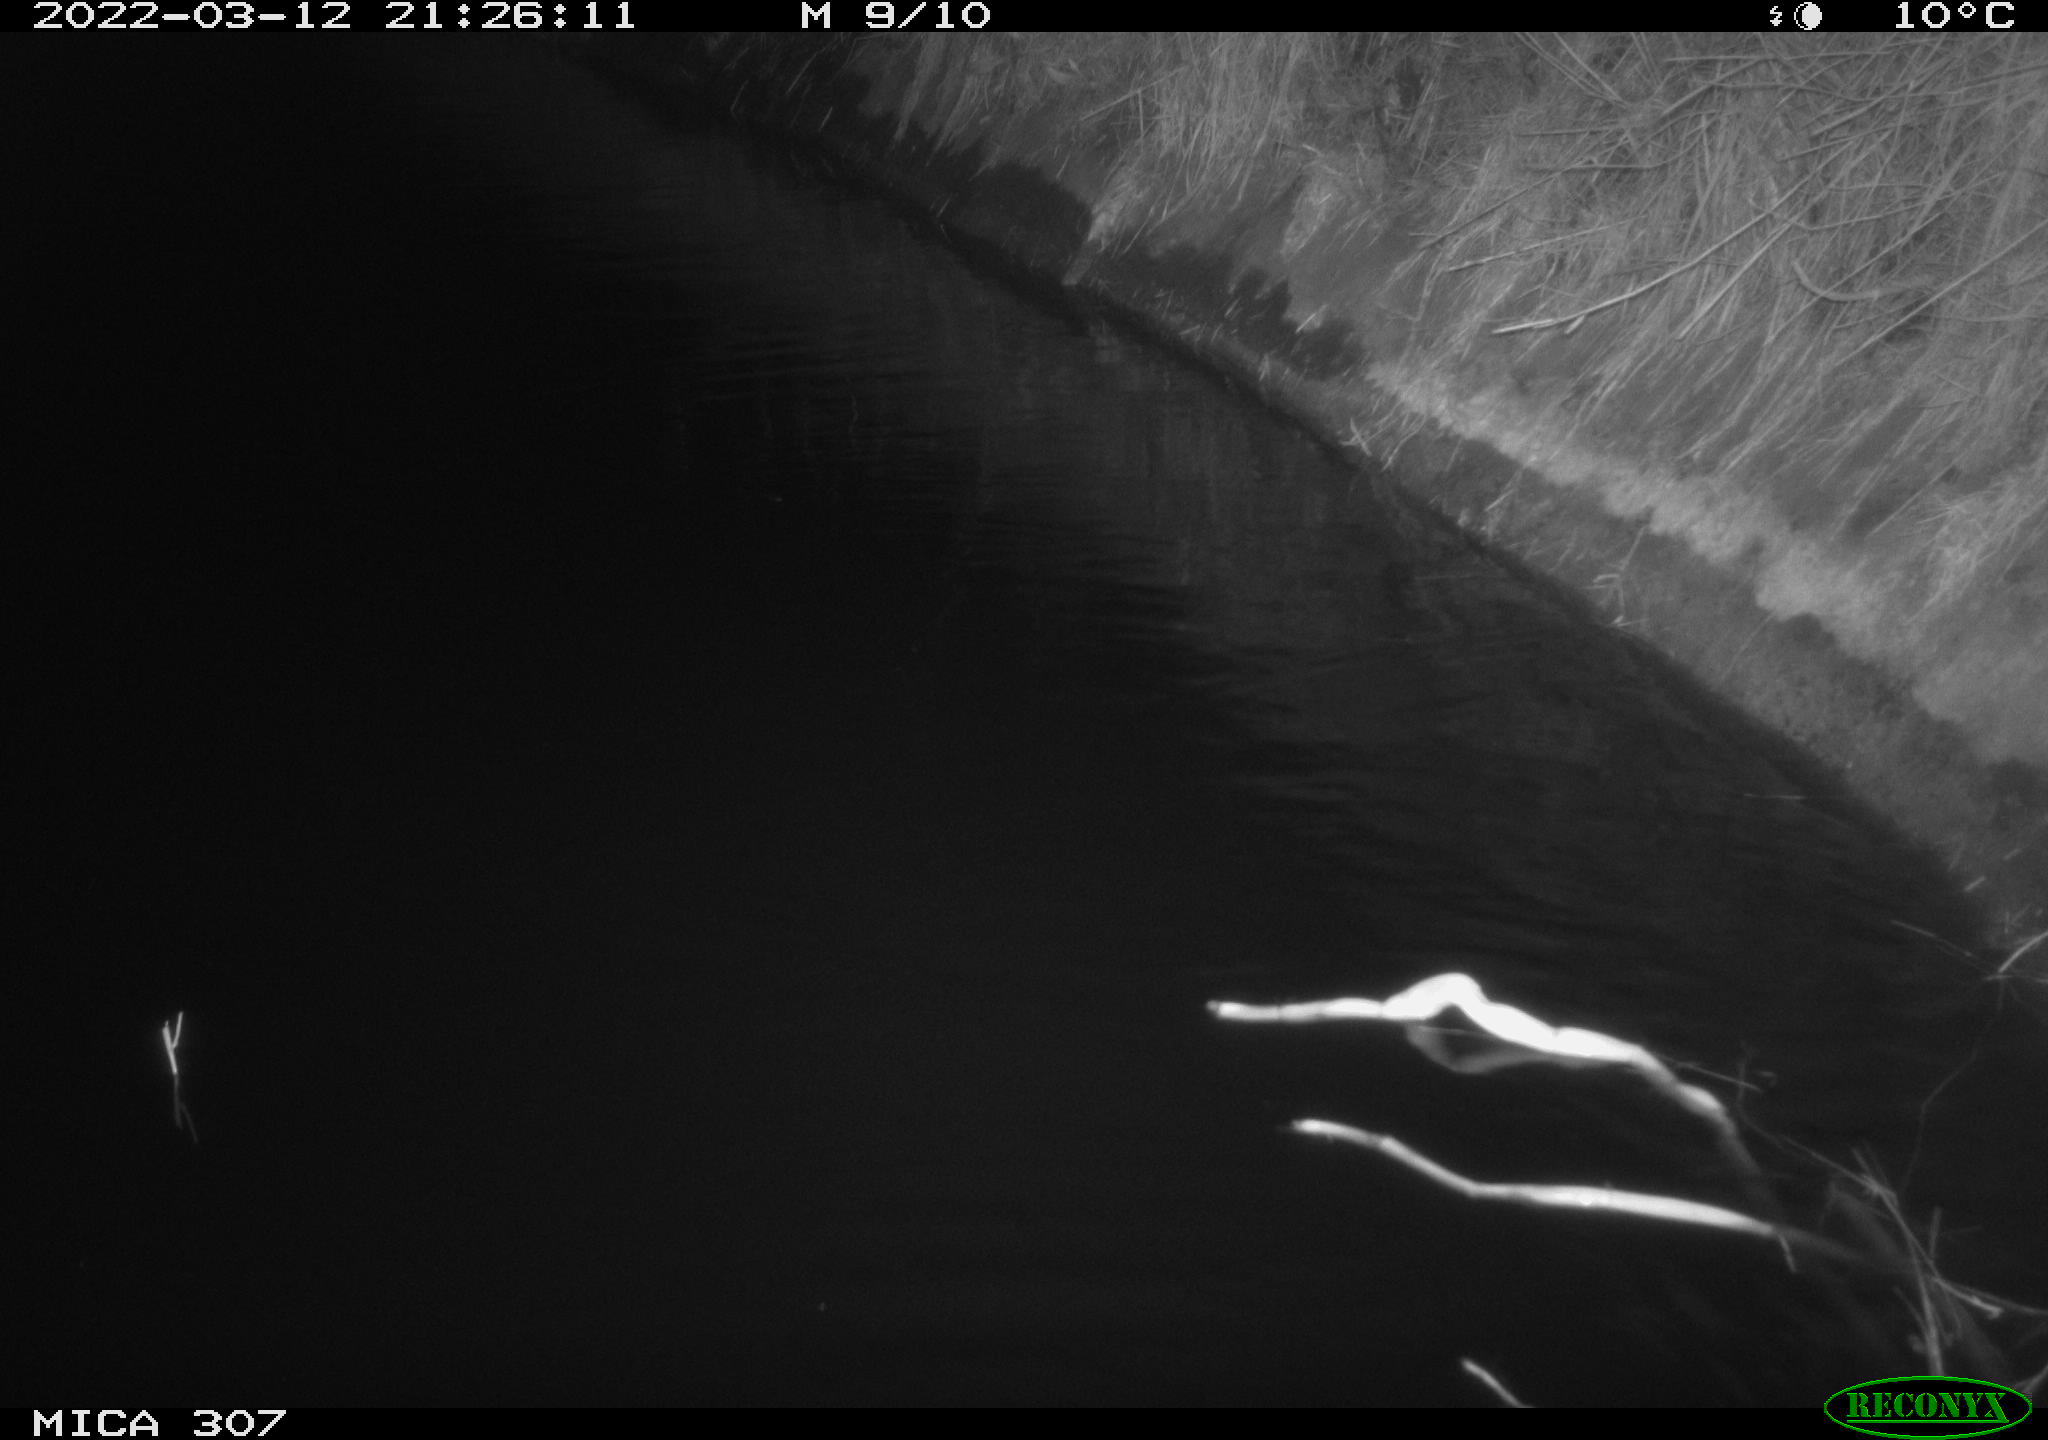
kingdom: Animalia
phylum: Chordata
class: Mammalia
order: Rodentia
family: Muridae
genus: Rattus
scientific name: Rattus norvegicus
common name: Brown rat
